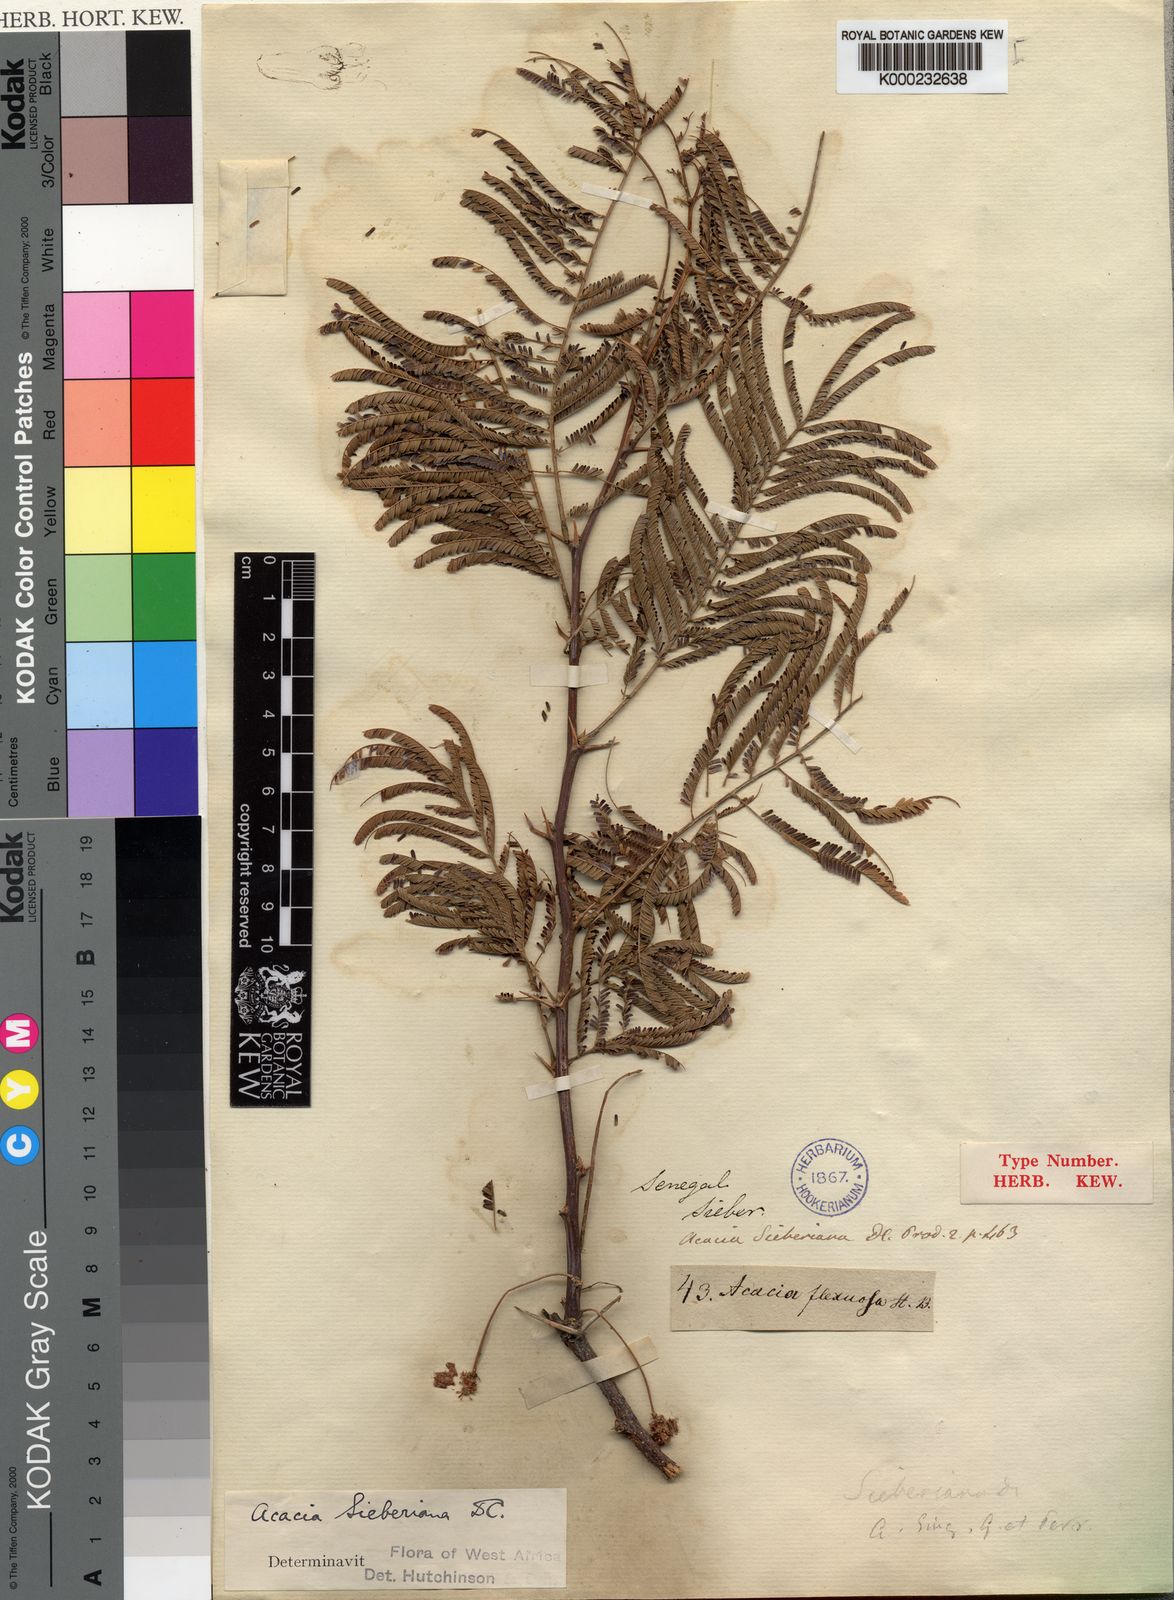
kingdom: Plantae
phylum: Tracheophyta
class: Magnoliopsida
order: Fabales
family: Fabaceae
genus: Vachellia
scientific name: Vachellia sieberiana
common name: Flat-topped thorn
